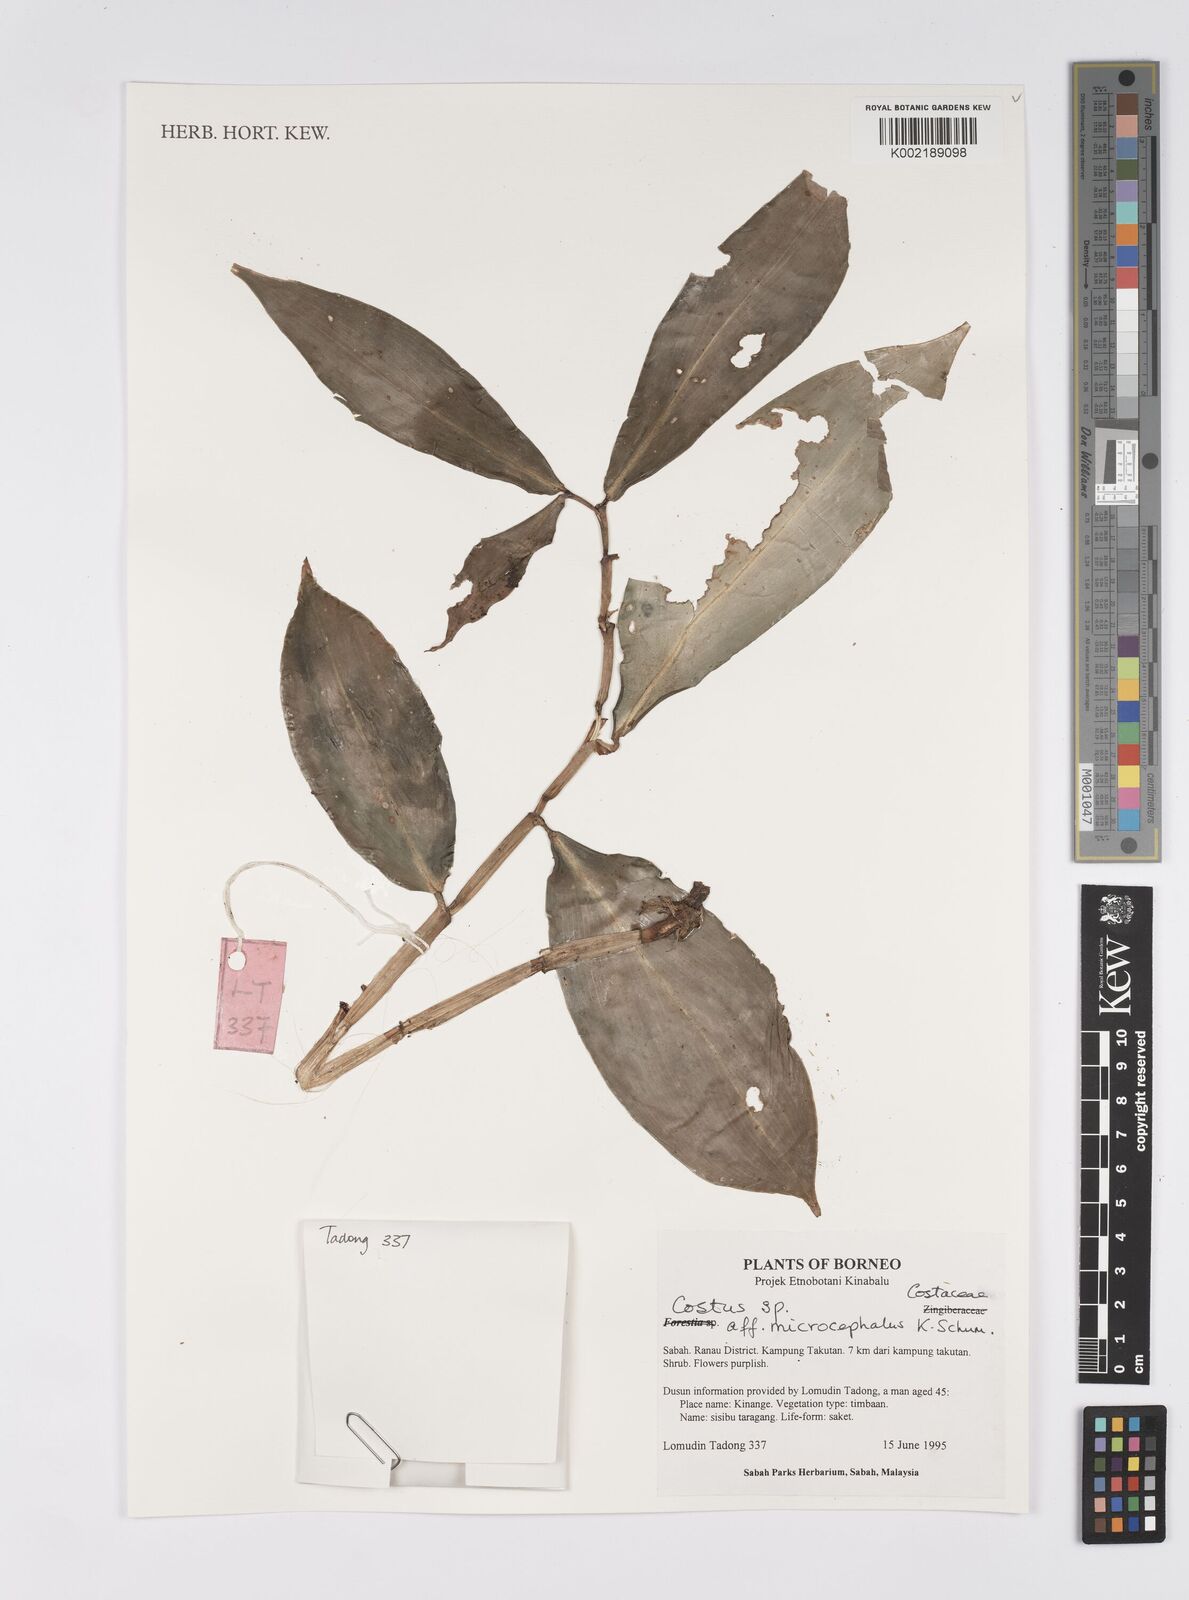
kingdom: Plantae
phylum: Tracheophyta
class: Liliopsida
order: Zingiberales
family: Costaceae
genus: Costus
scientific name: Costus microcephalus
